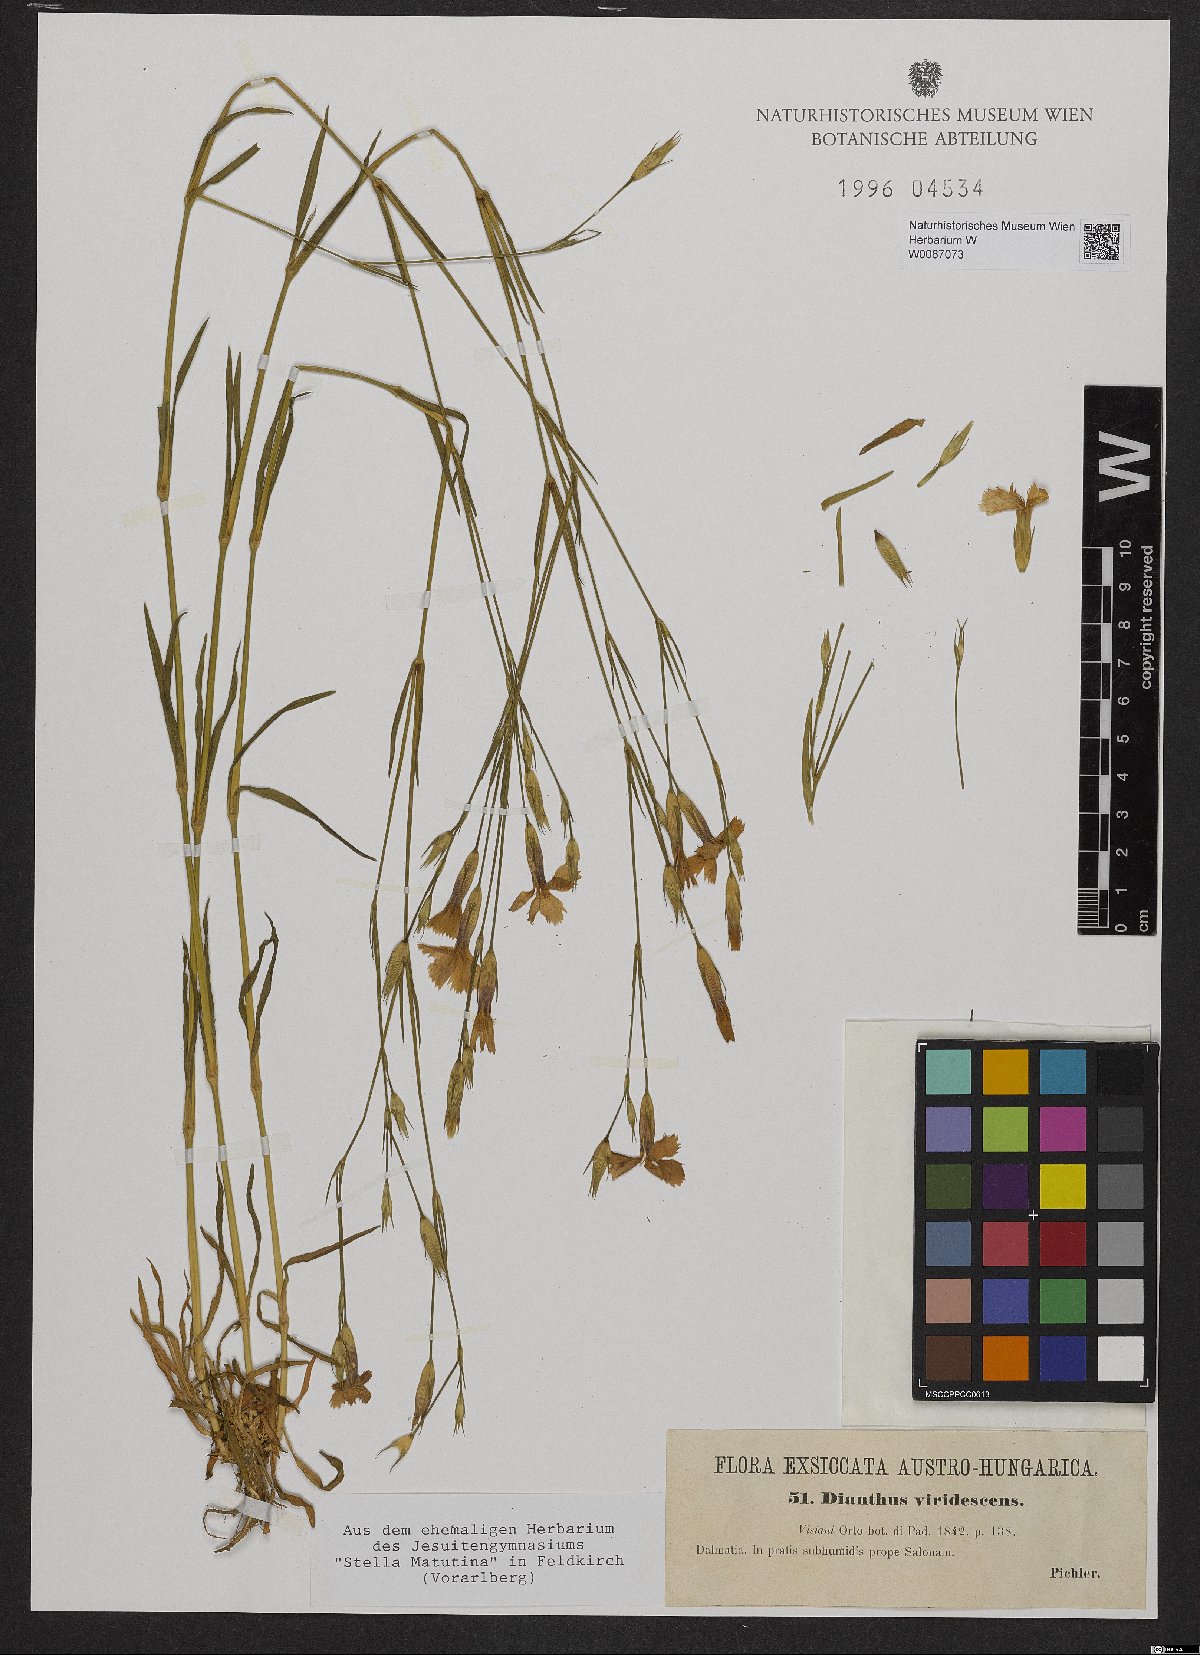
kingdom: Plantae
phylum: Tracheophyta
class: Magnoliopsida
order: Caryophyllales
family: Caryophyllaceae
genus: Dianthus
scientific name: Dianthus viridescens
